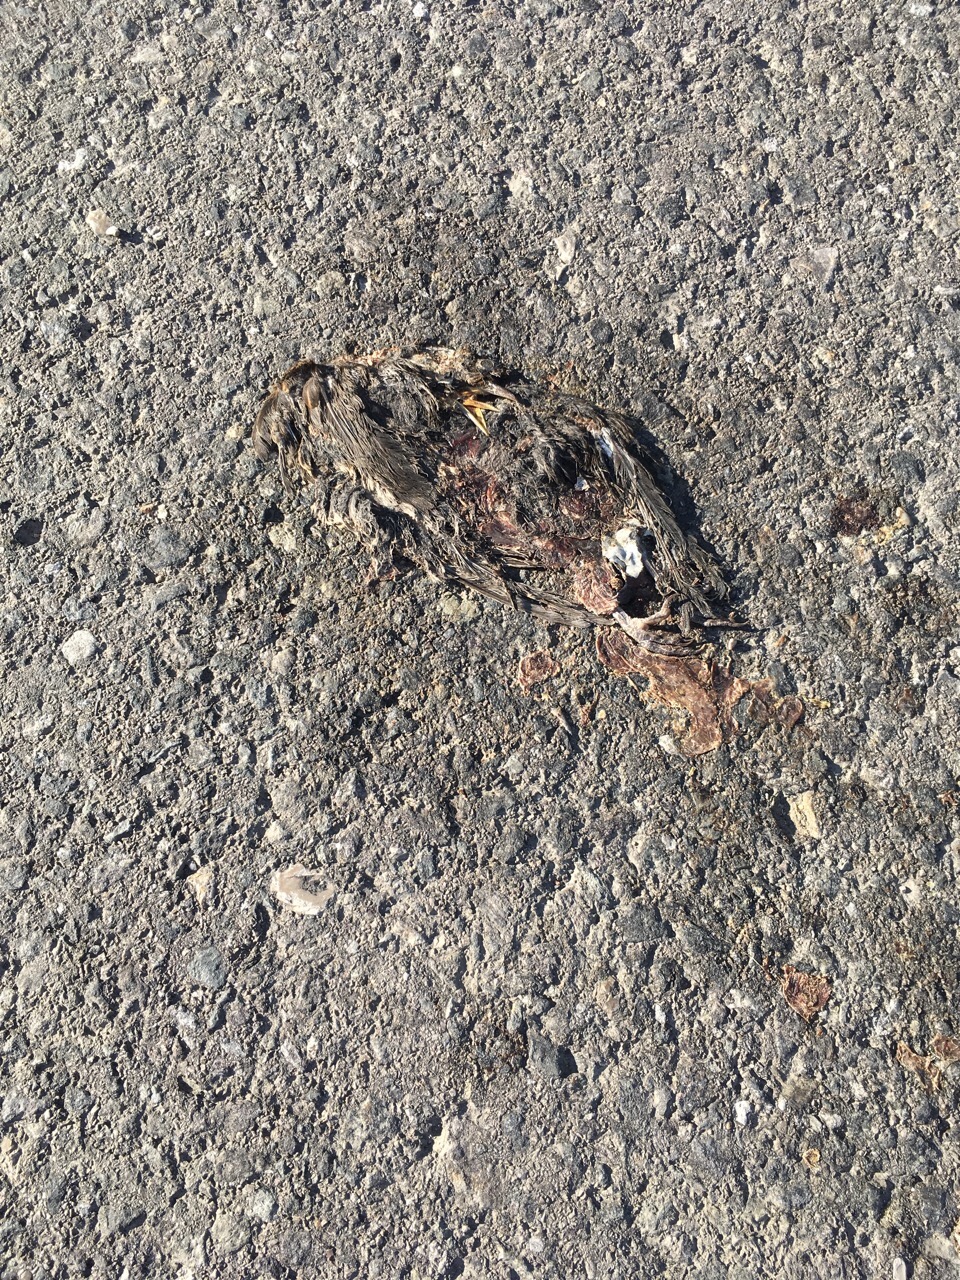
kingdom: Animalia
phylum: Chordata
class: Aves
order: Passeriformes
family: Turdidae
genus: Turdus
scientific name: Turdus merula
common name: Common blackbird
